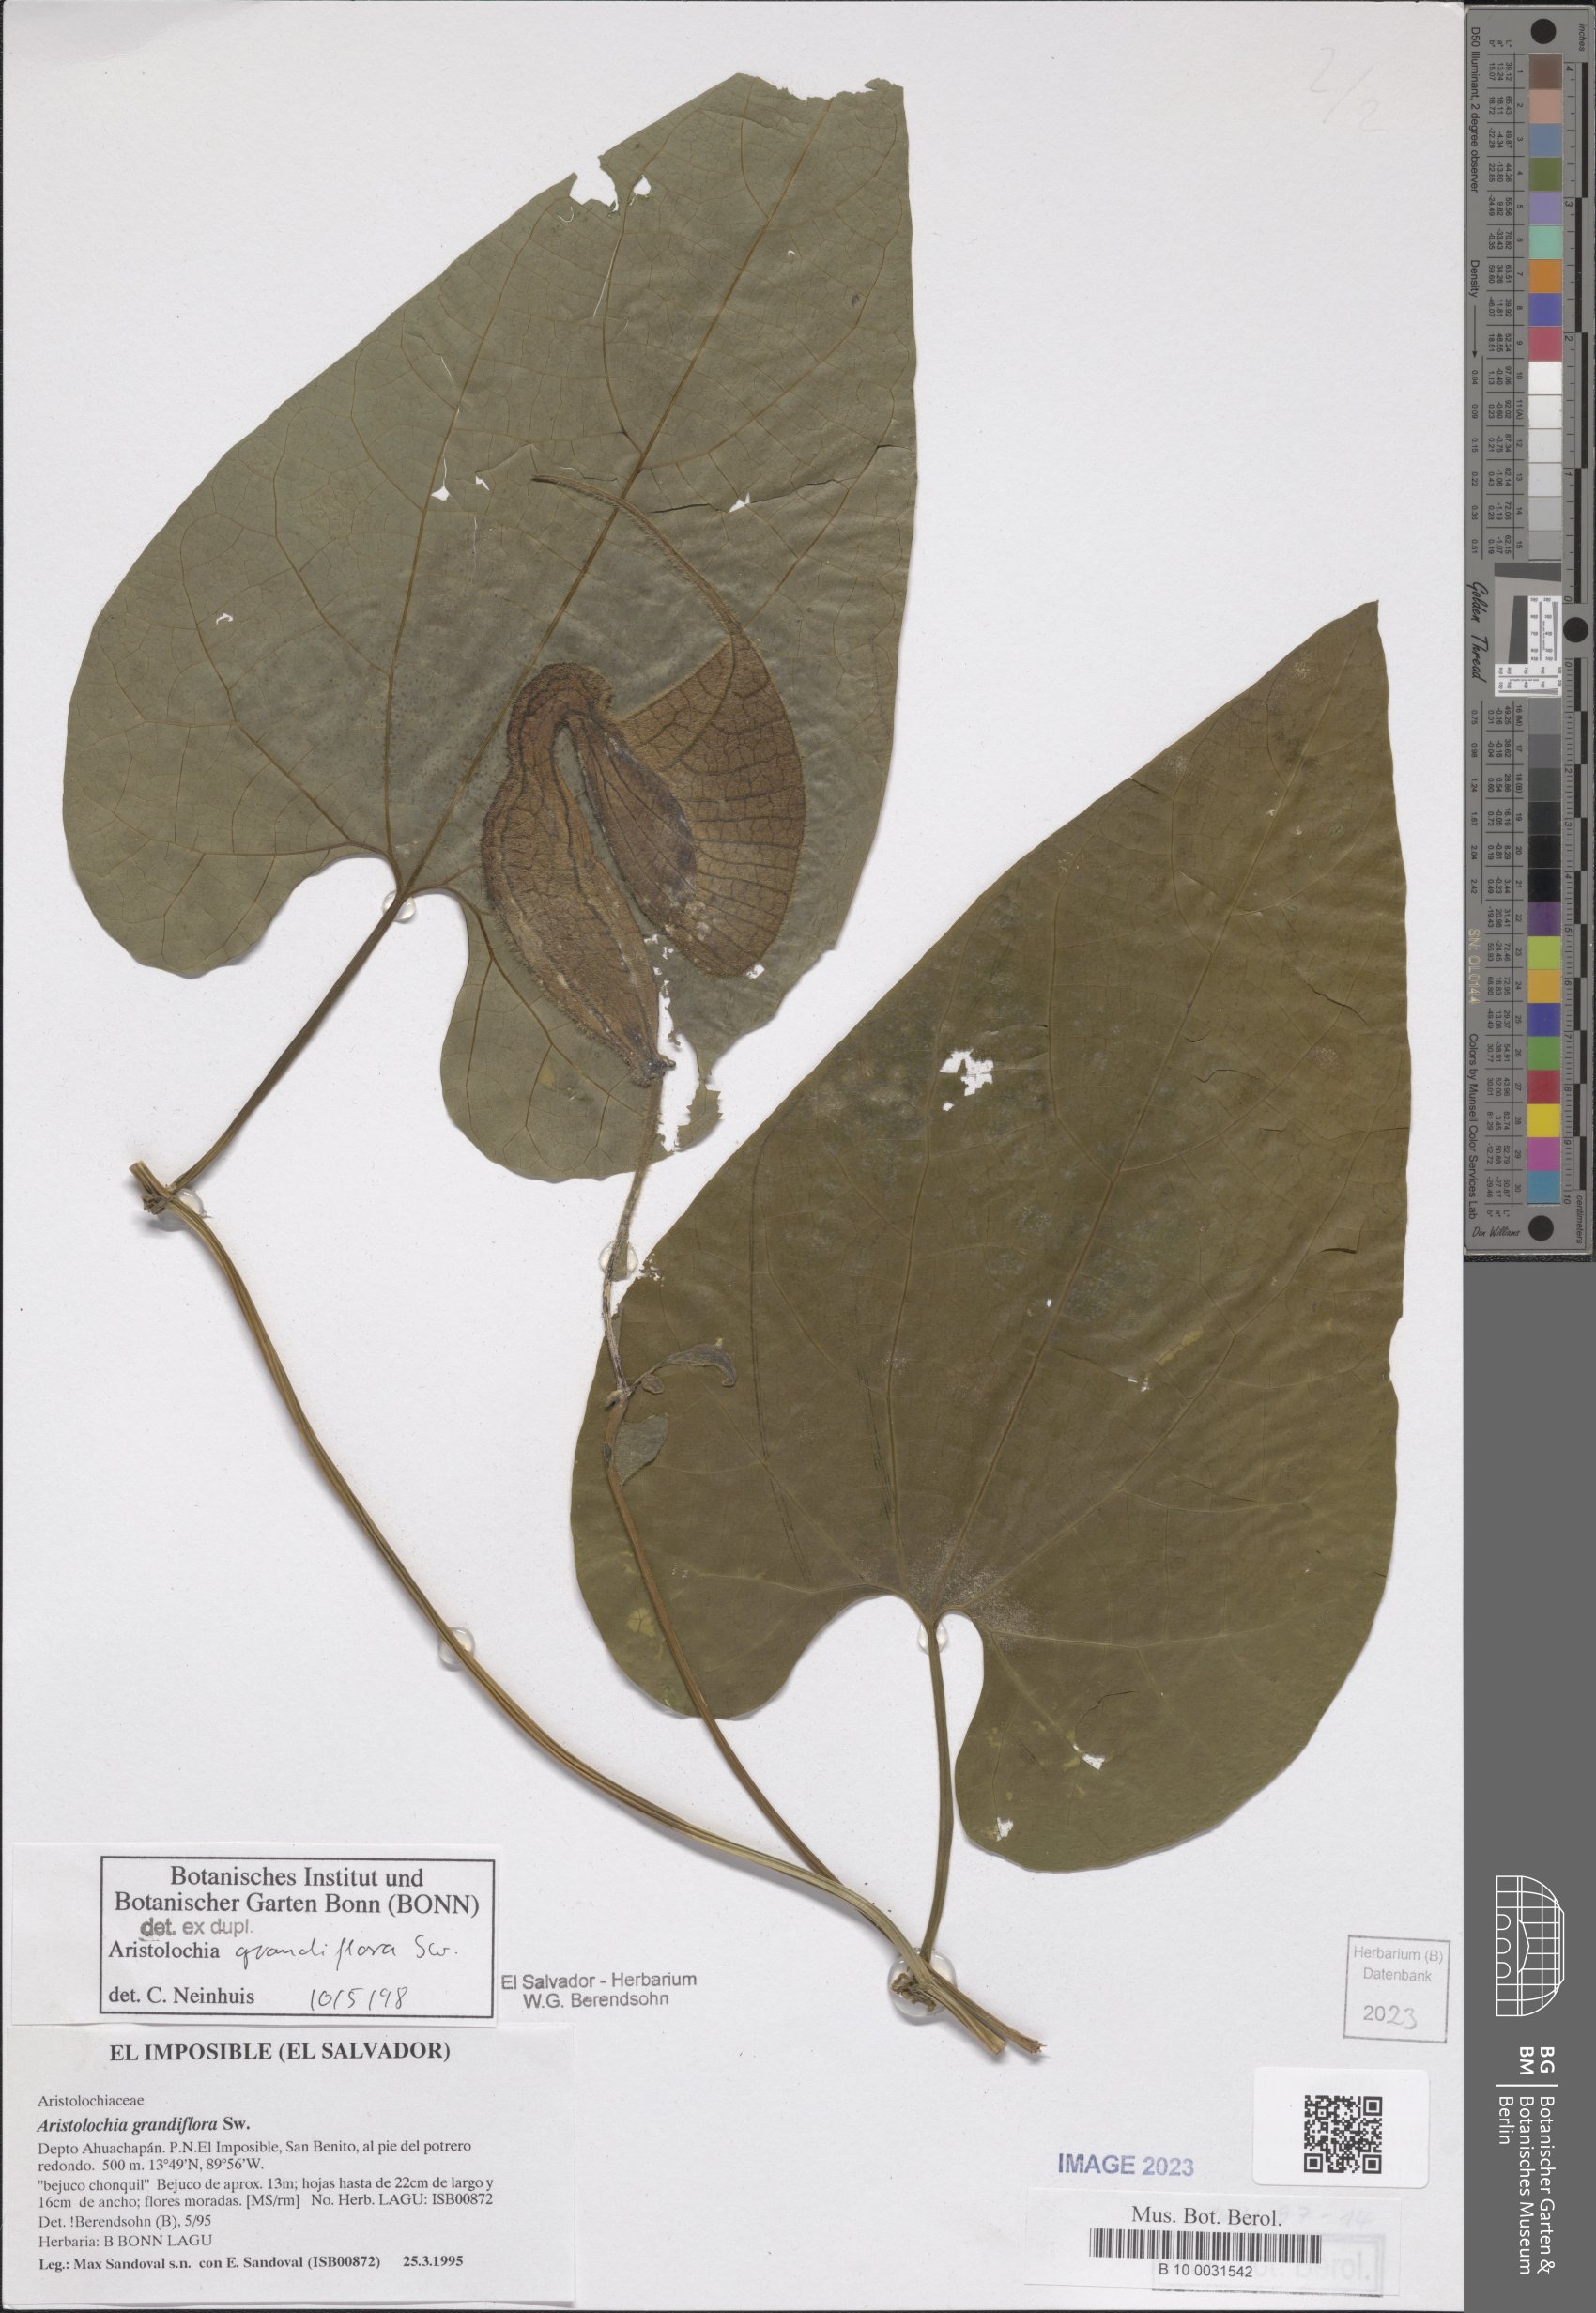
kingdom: Plantae
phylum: Tracheophyta
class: Magnoliopsida
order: Piperales
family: Aristolochiaceae
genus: Aristolochia
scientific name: Aristolochia grandiflora
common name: Pelicanflower
